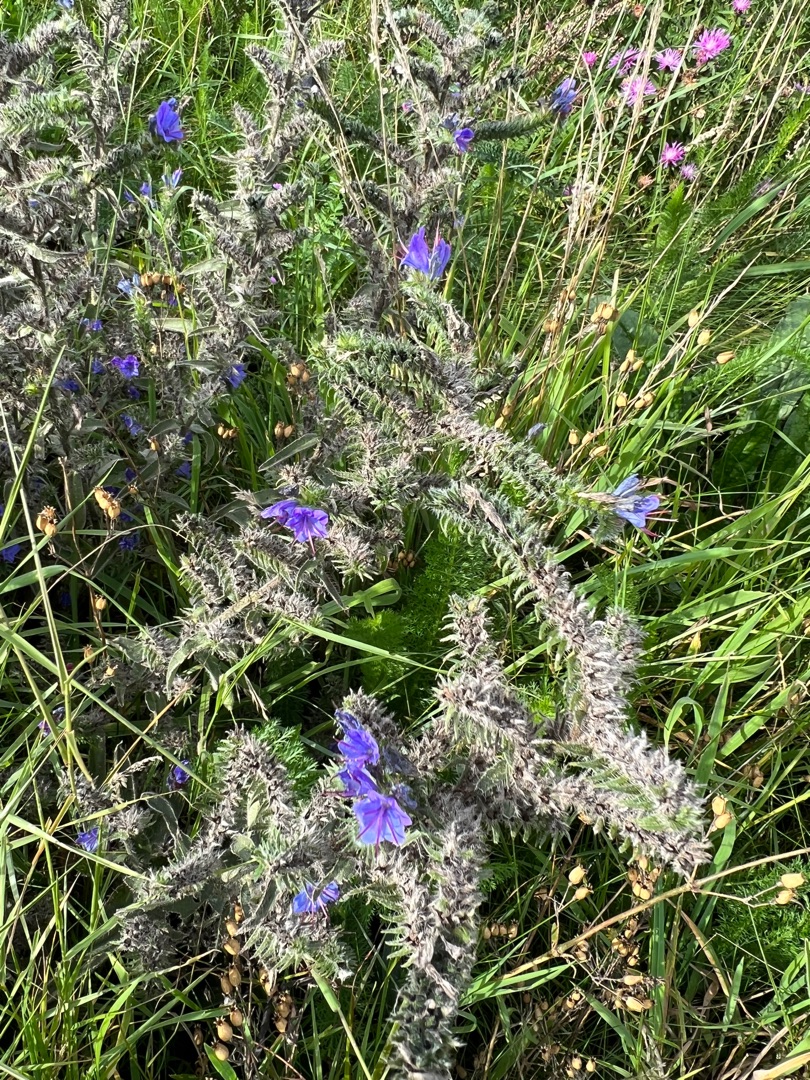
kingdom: Plantae
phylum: Tracheophyta
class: Magnoliopsida
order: Boraginales
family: Boraginaceae
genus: Echium
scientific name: Echium vulgare
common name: Slangehoved
